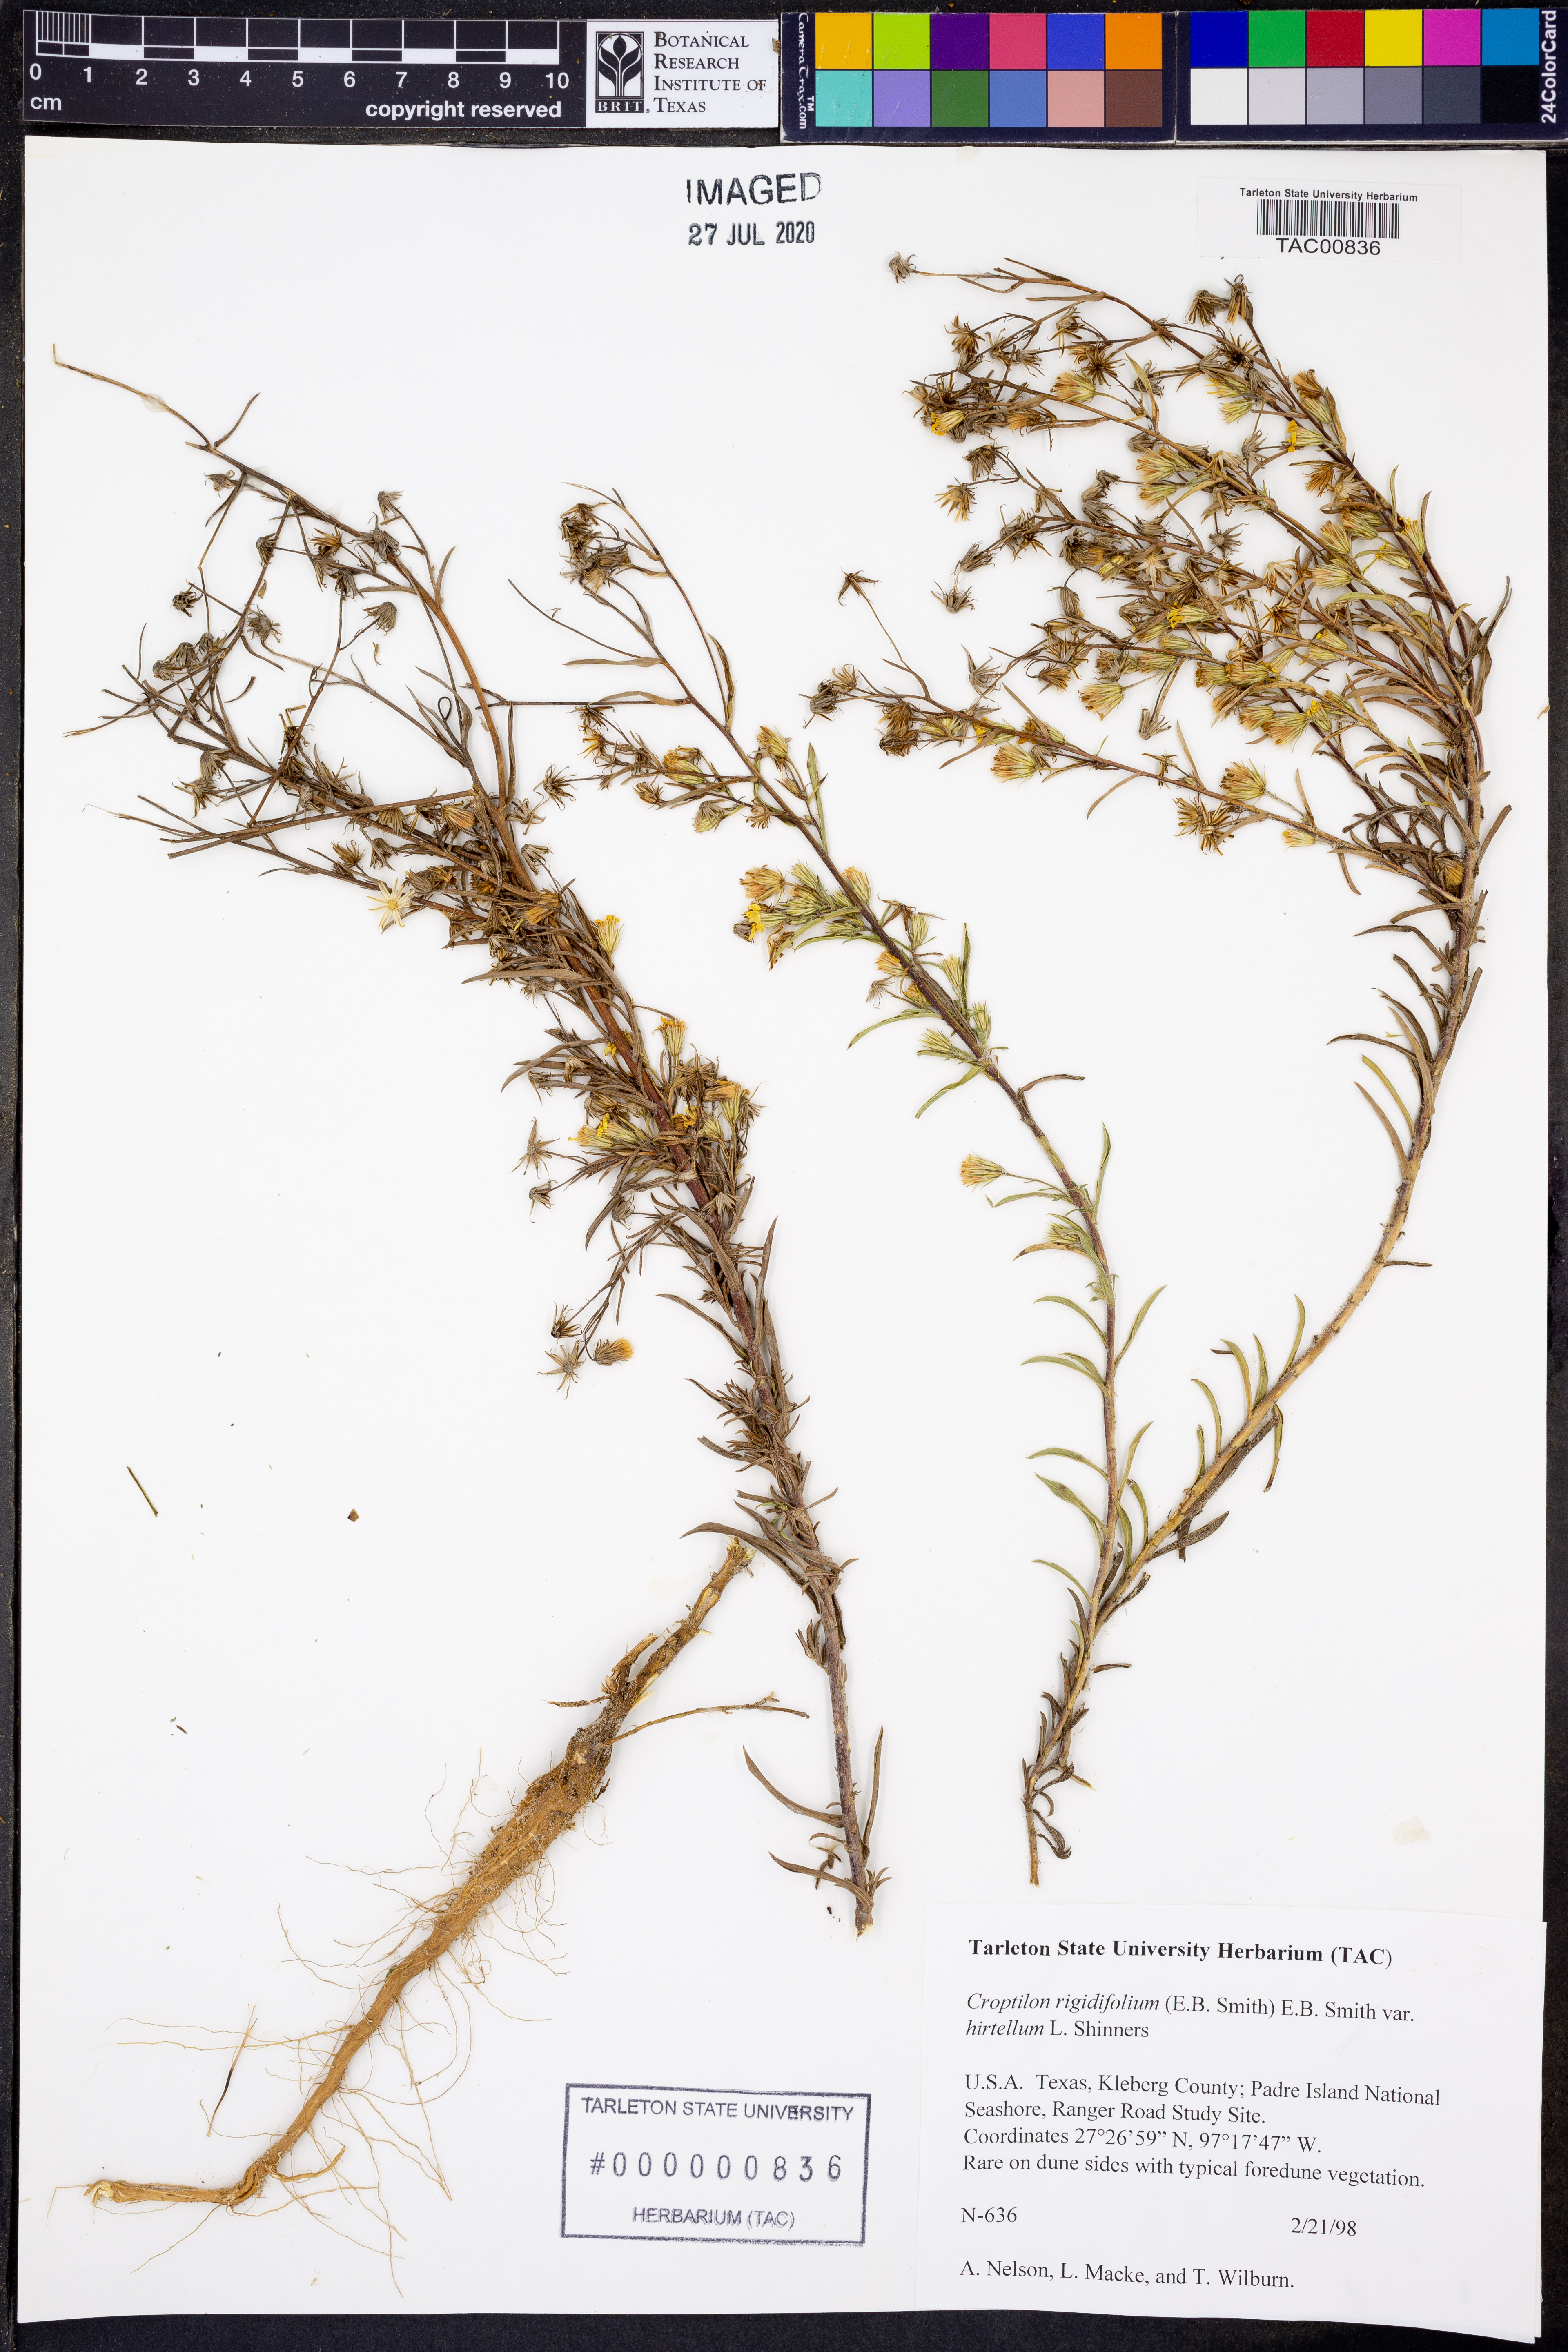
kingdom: Plantae
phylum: Tracheophyta
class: Magnoliopsida
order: Asterales
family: Asteraceae
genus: Croptilon
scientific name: Croptilon rigidifolium
